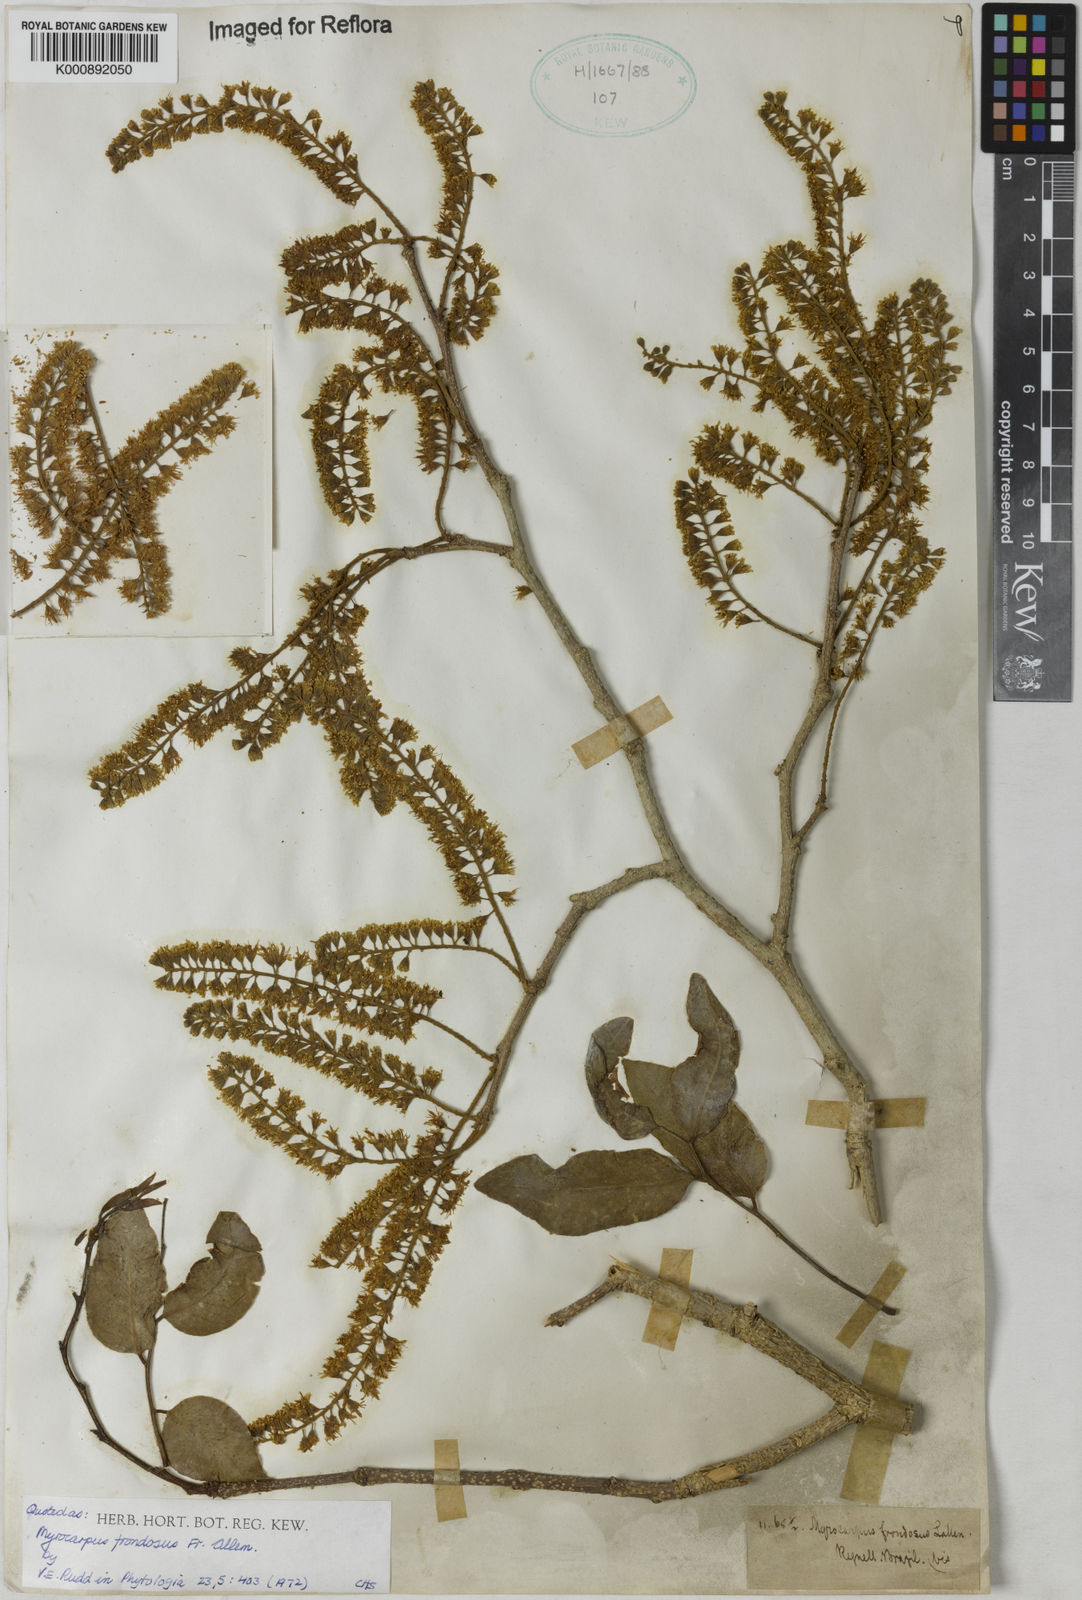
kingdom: Plantae
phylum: Tracheophyta
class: Magnoliopsida
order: Fabales
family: Fabaceae
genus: Myrocarpus
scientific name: Myrocarpus
